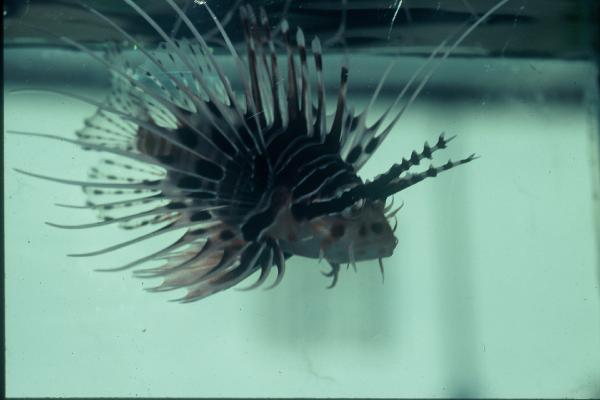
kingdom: Animalia
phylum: Chordata
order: Scorpaeniformes
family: Scorpaenidae
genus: Pterois
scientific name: Pterois miles
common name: Devil firefish
